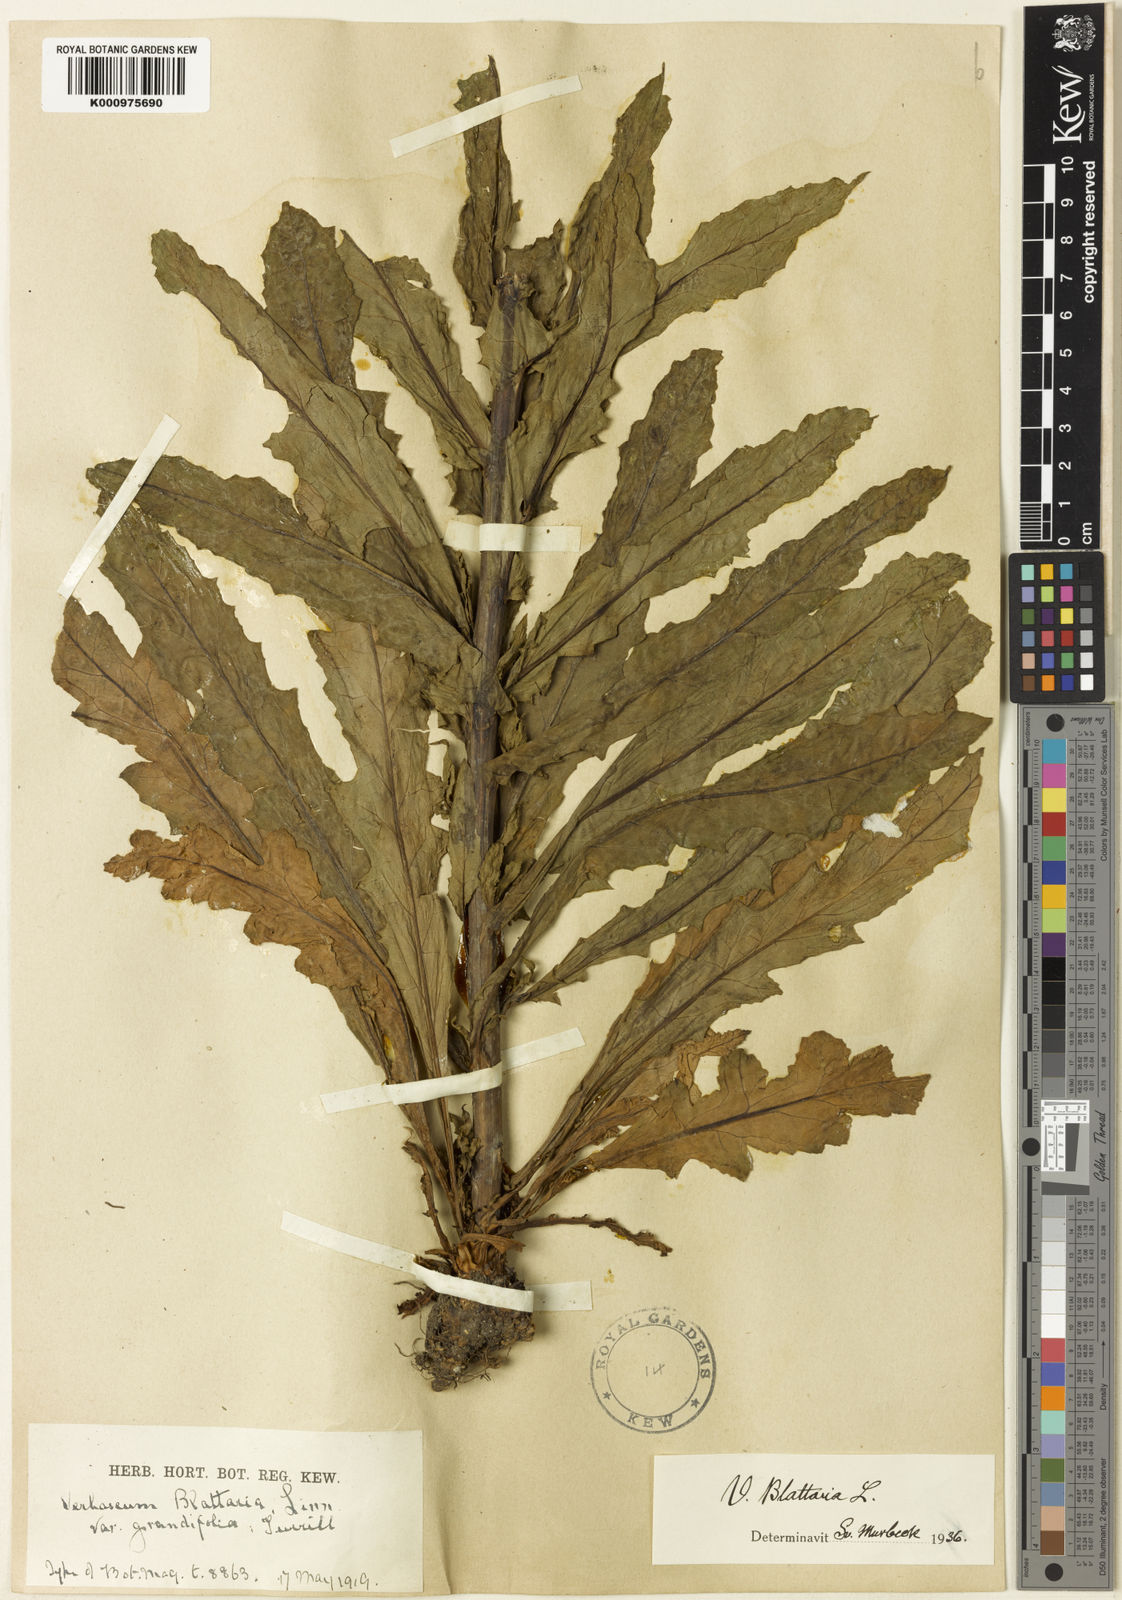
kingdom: Plantae
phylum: Tracheophyta
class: Magnoliopsida
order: Lamiales
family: Scrophulariaceae
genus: Verbascum
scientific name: Verbascum blattaria
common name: Moth mullein
